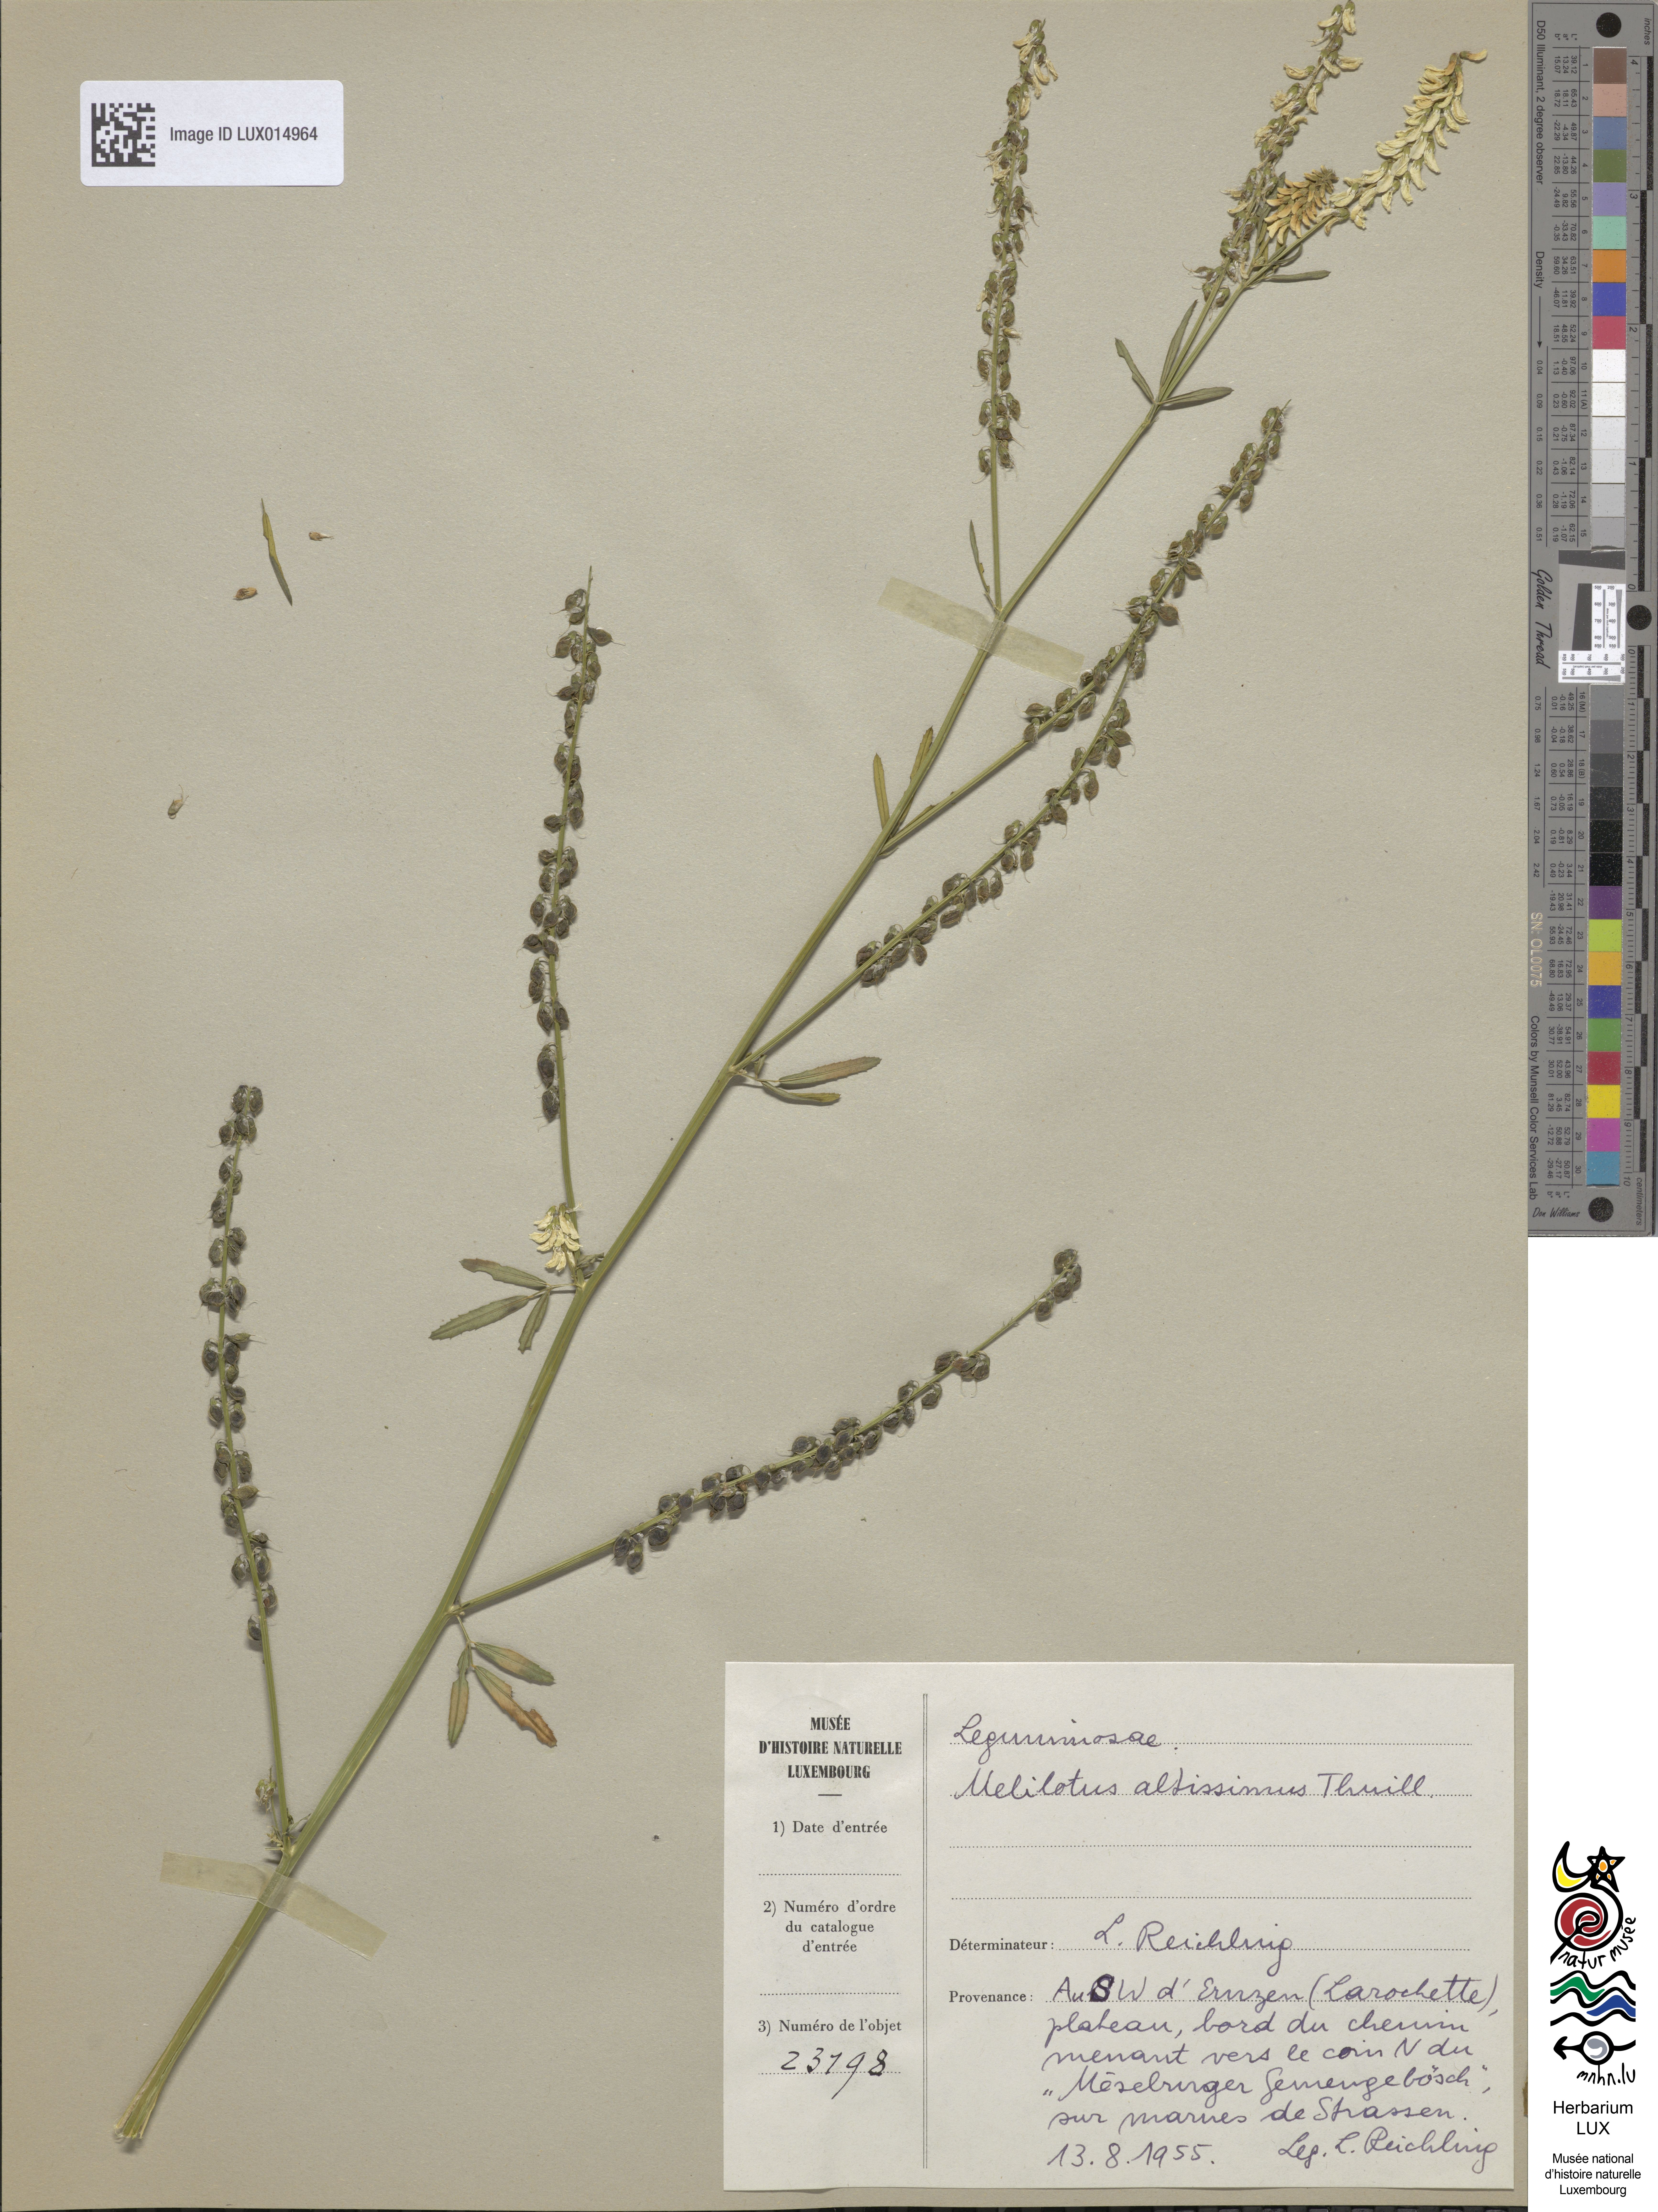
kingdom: Plantae
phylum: Tracheophyta
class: Magnoliopsida
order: Fabales
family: Fabaceae
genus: Melilotus
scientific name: Melilotus altissimus
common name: Tall melilot
